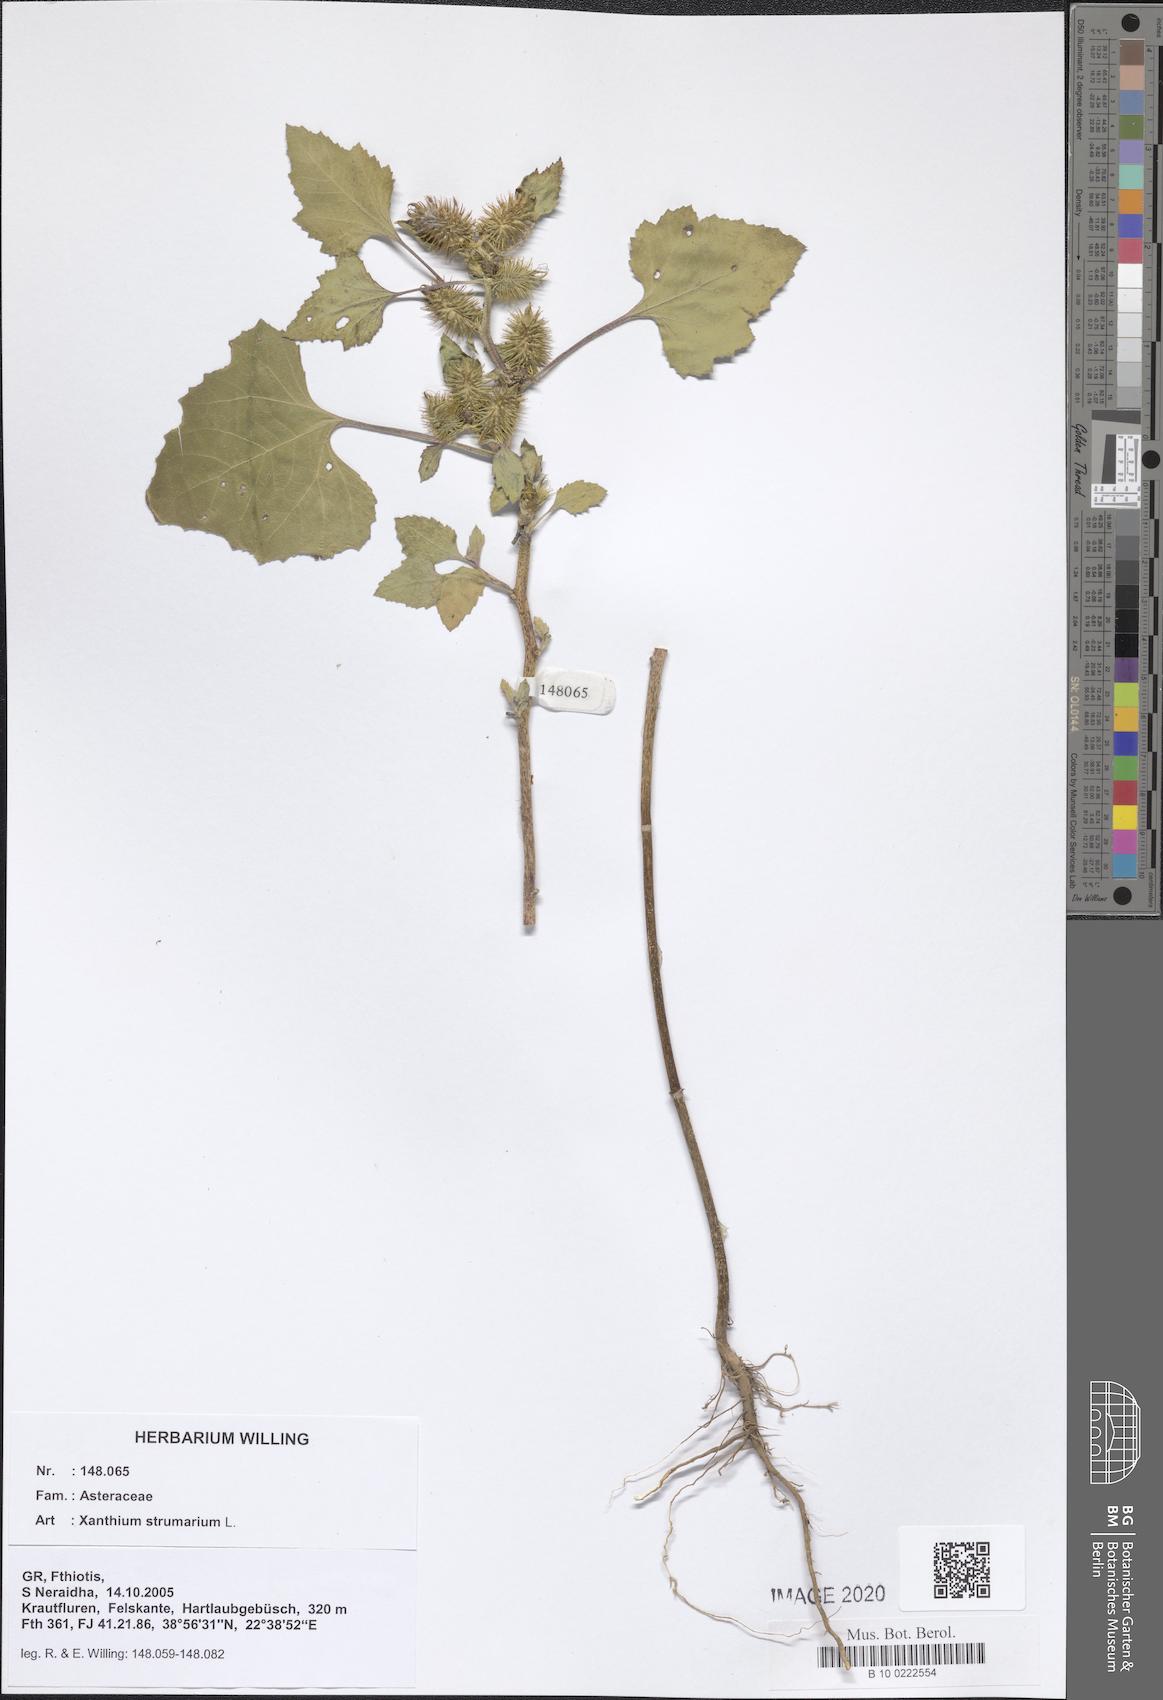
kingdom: Plantae
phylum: Tracheophyta
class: Magnoliopsida
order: Asterales
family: Asteraceae
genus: Xanthium
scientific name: Xanthium strumarium
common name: Rough cocklebur
